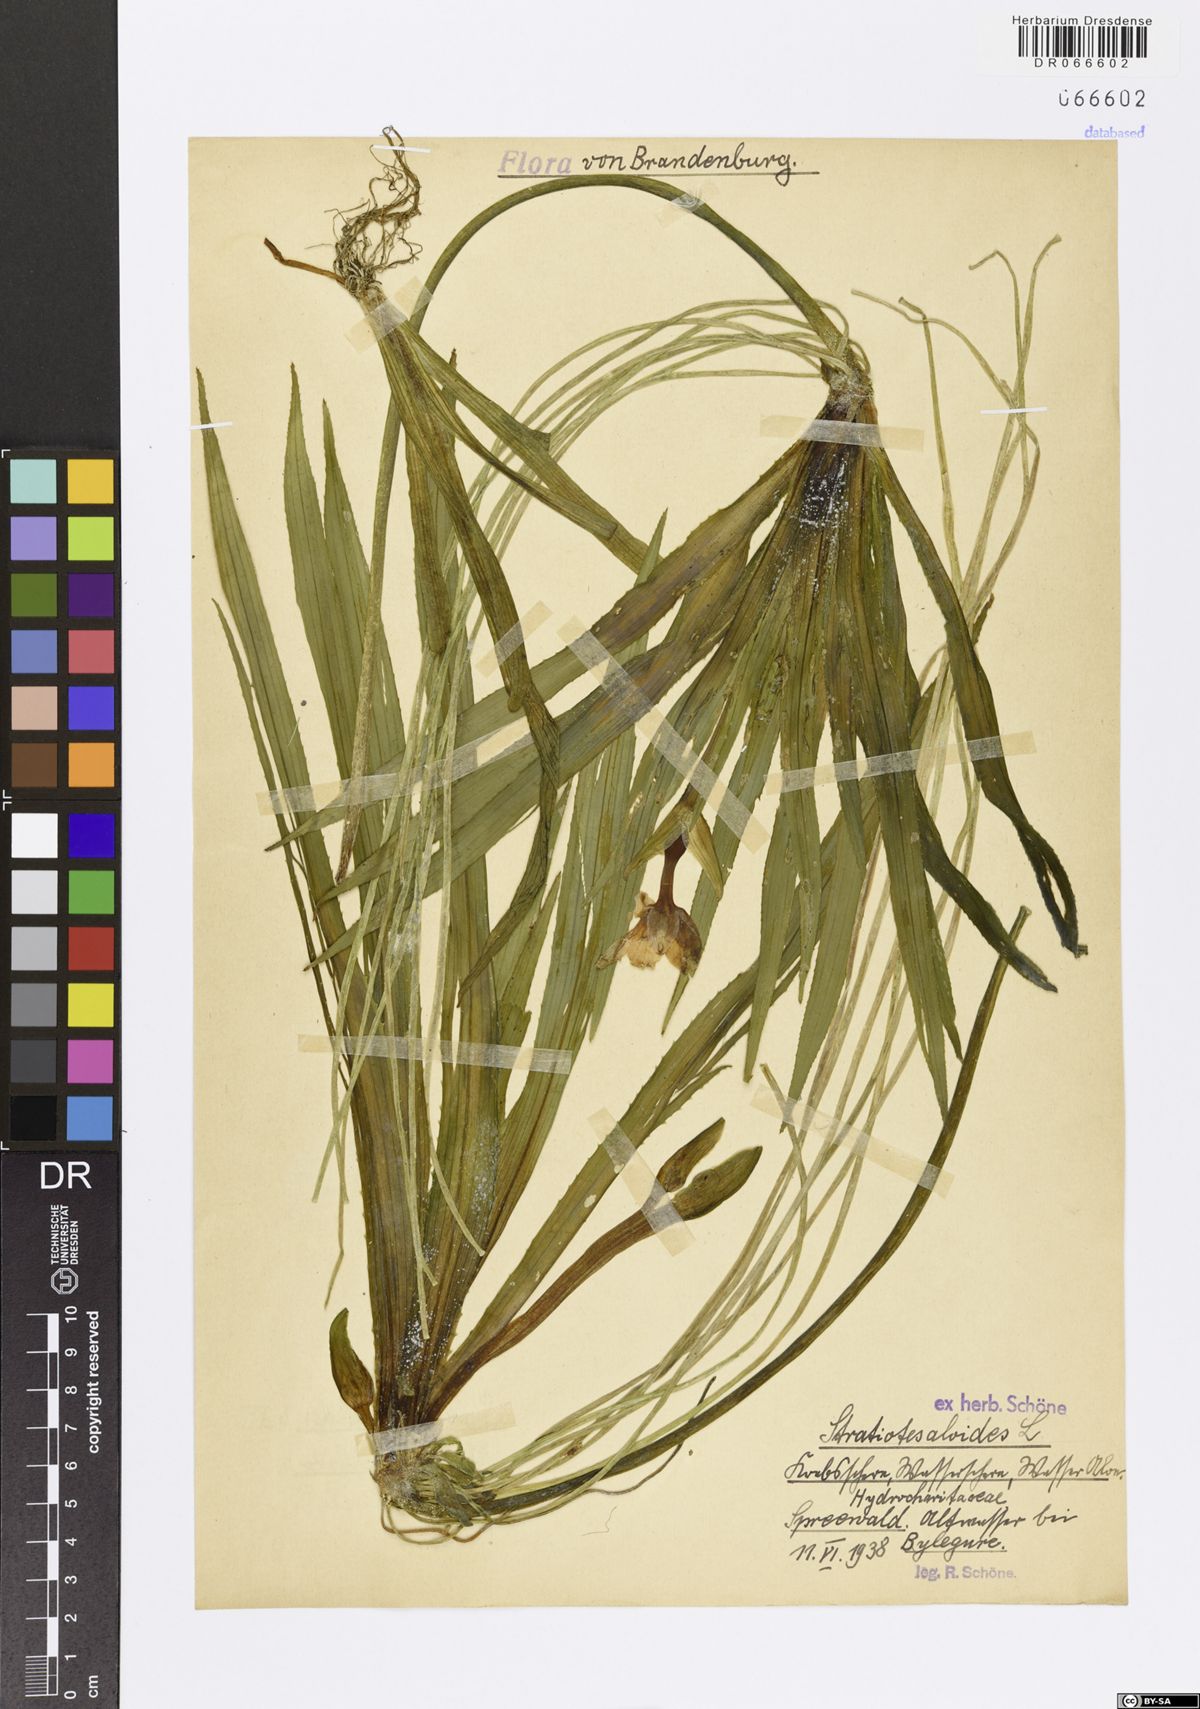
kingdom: Plantae
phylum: Tracheophyta
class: Liliopsida
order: Alismatales
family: Hydrocharitaceae
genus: Stratiotes
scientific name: Stratiotes aloides
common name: Water-soldier
